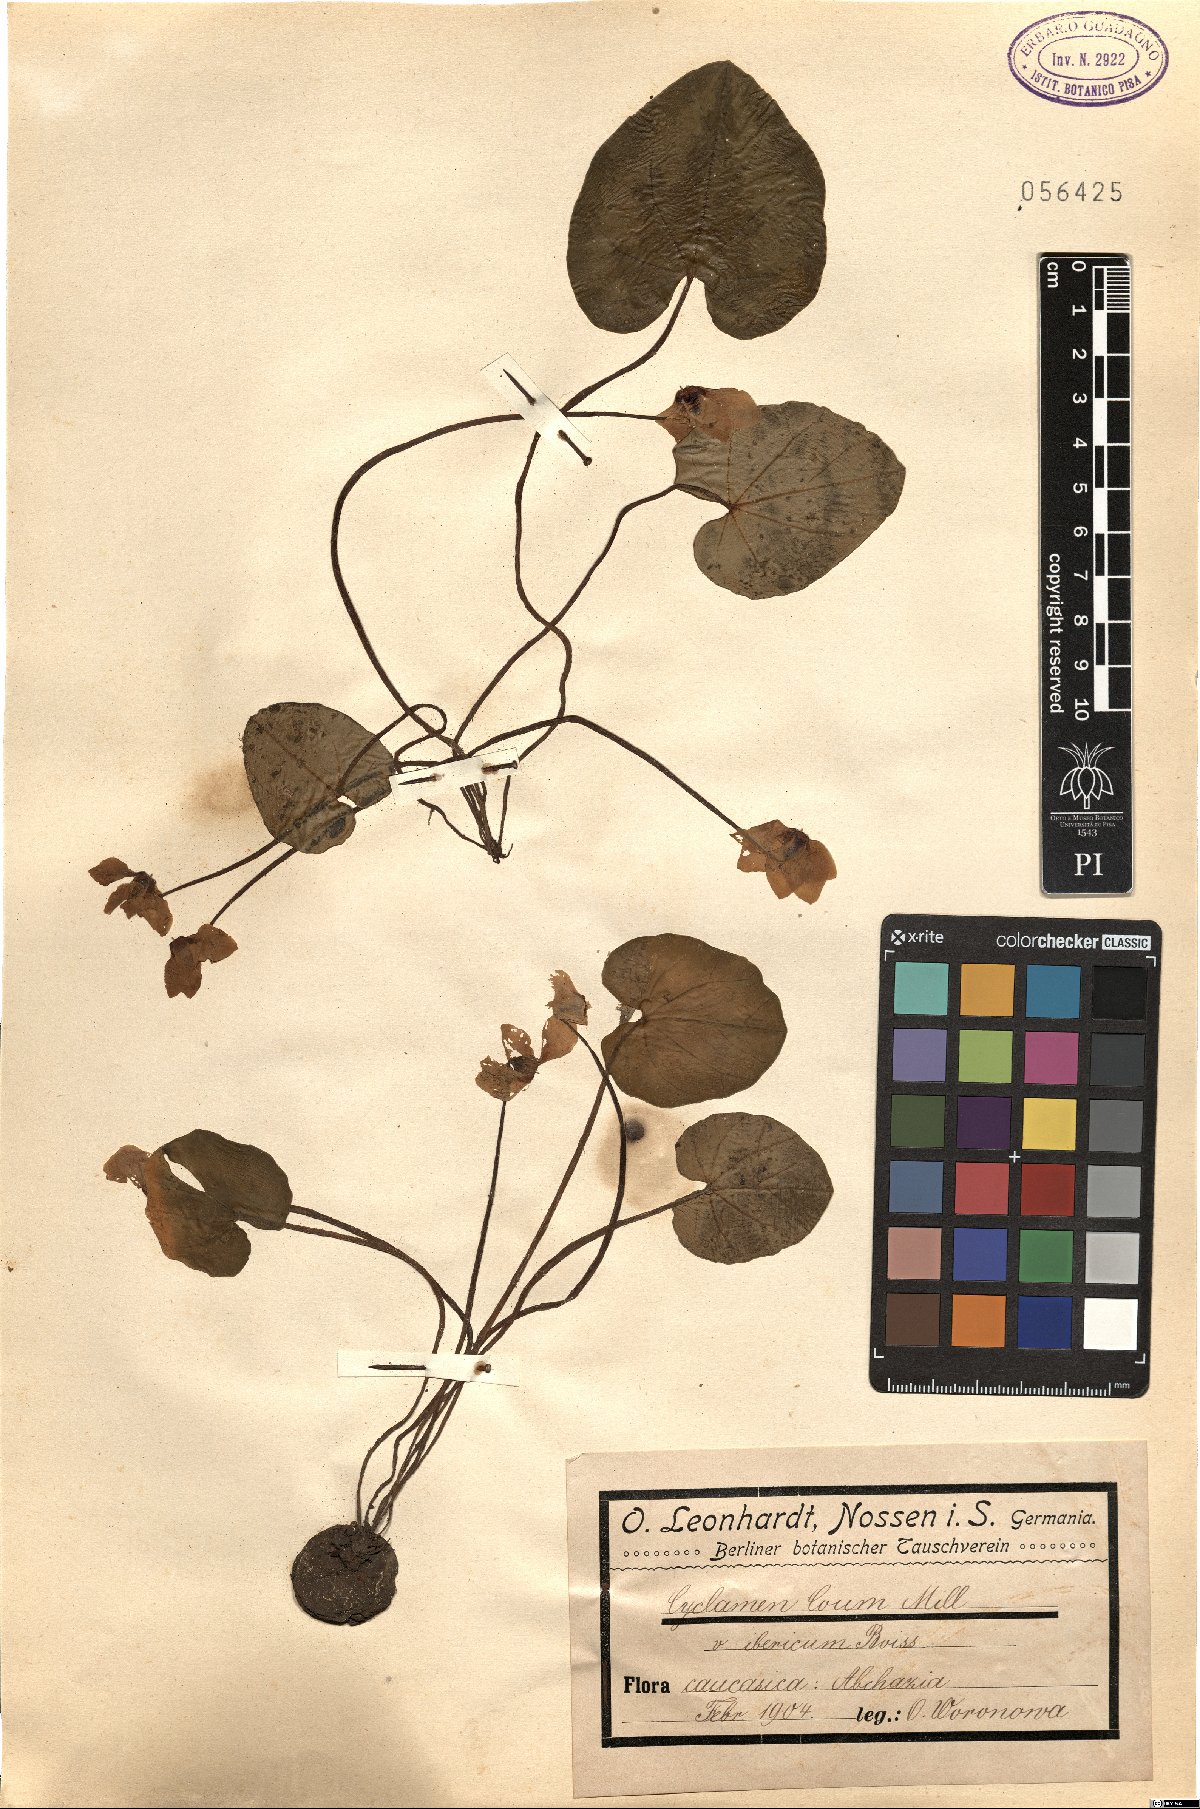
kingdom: Plantae
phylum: Tracheophyta
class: Magnoliopsida
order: Ericales
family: Primulaceae
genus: Cyclamen
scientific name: Cyclamen coum
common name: Eastern sowbread
